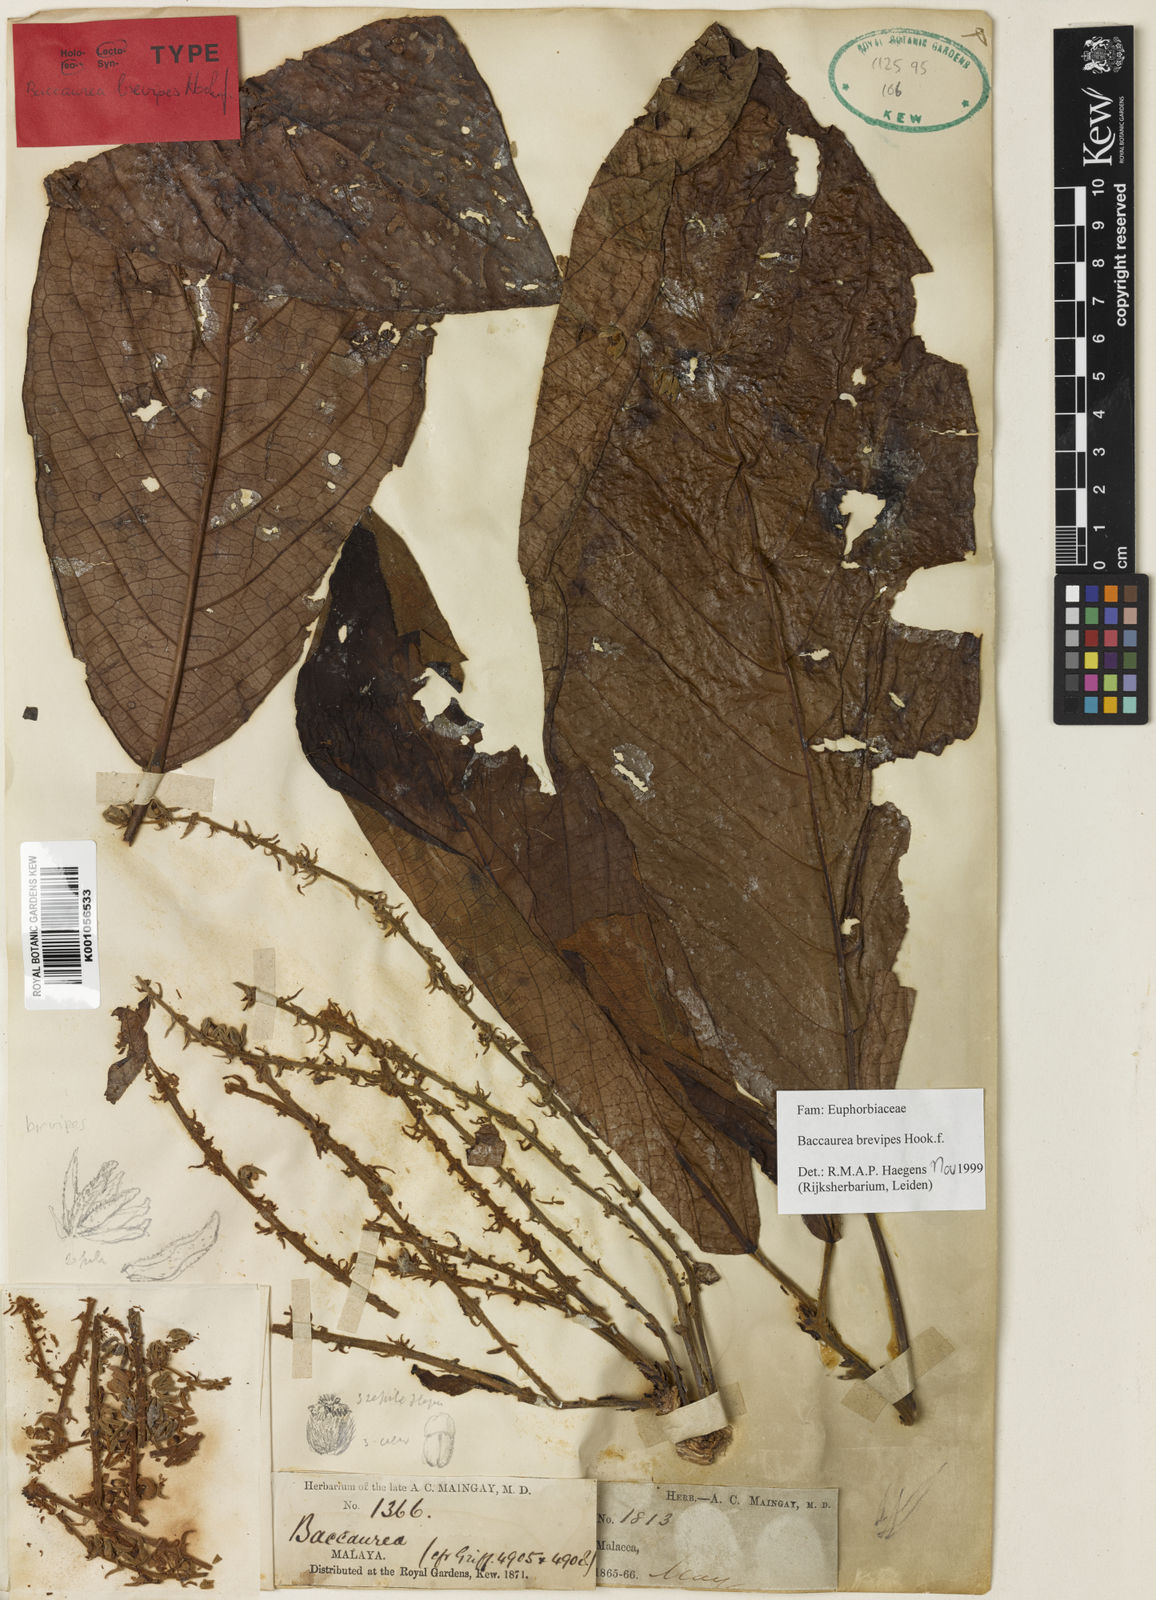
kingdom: Plantae
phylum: Tracheophyta
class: Magnoliopsida
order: Malpighiales
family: Phyllanthaceae
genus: Baccaurea
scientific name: Baccaurea brevipes
